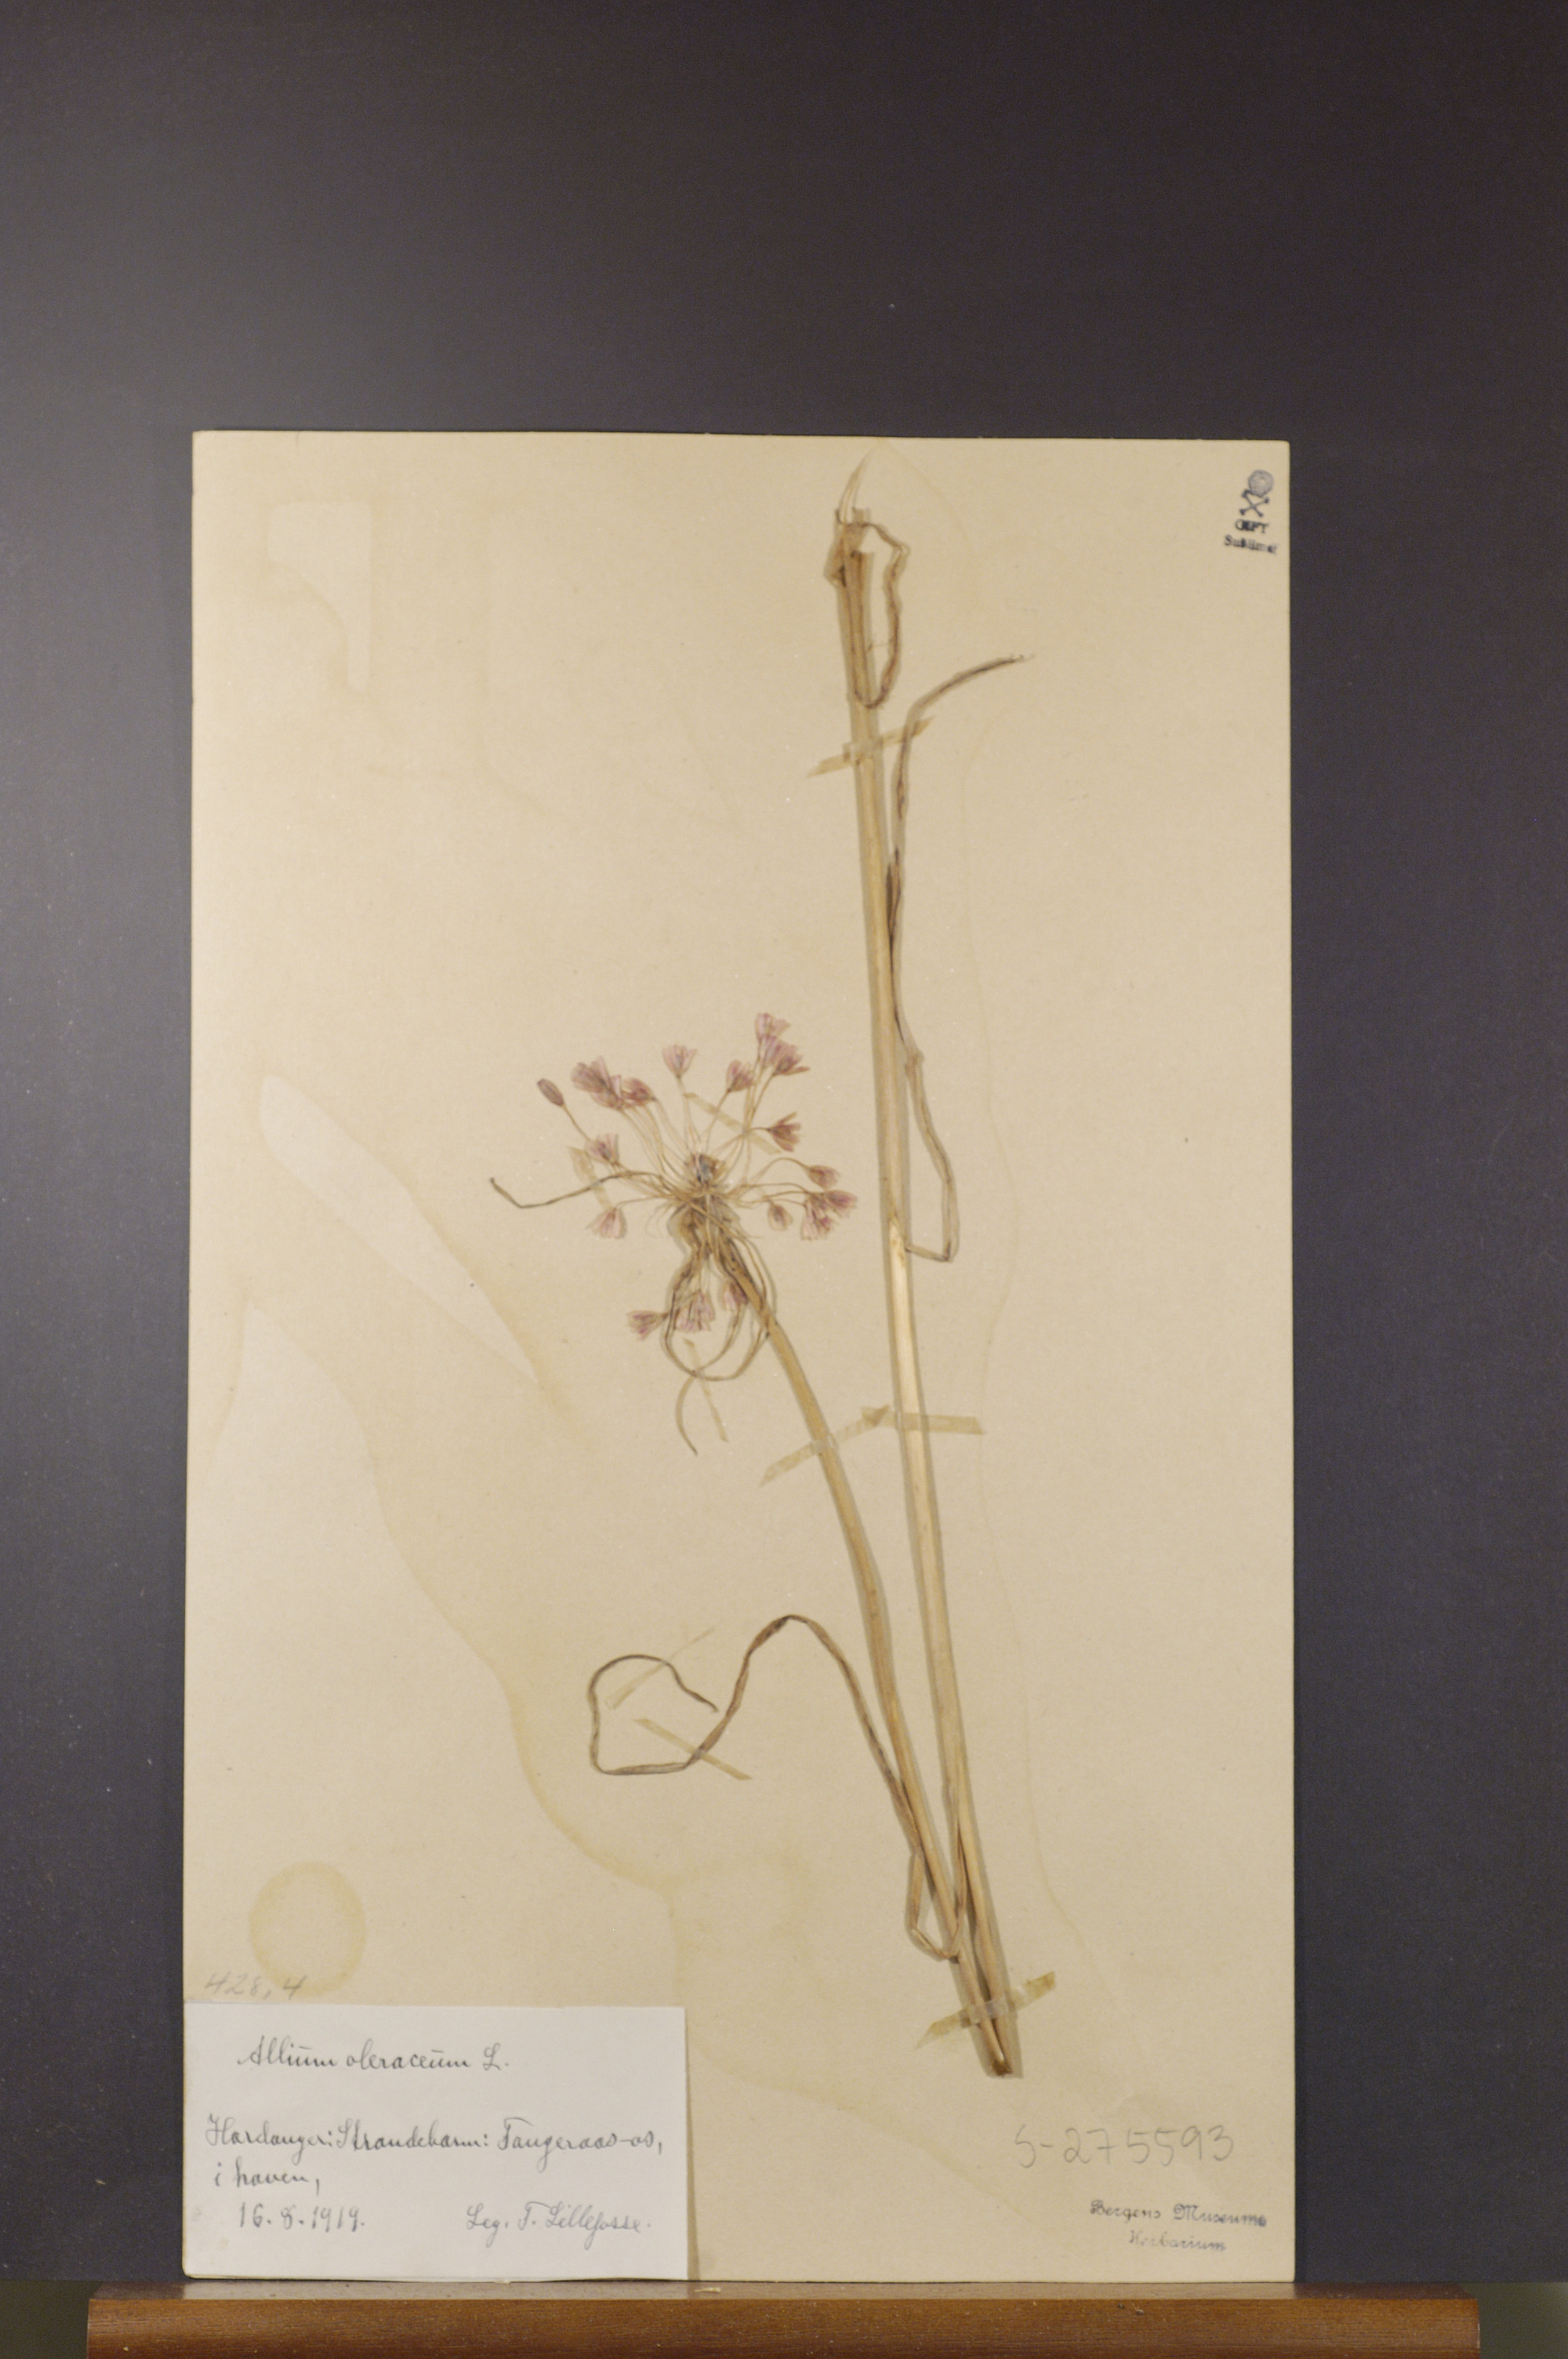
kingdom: Plantae
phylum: Tracheophyta
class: Liliopsida
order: Asparagales
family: Amaryllidaceae
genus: Allium
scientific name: Allium oleraceum
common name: Field garlic
